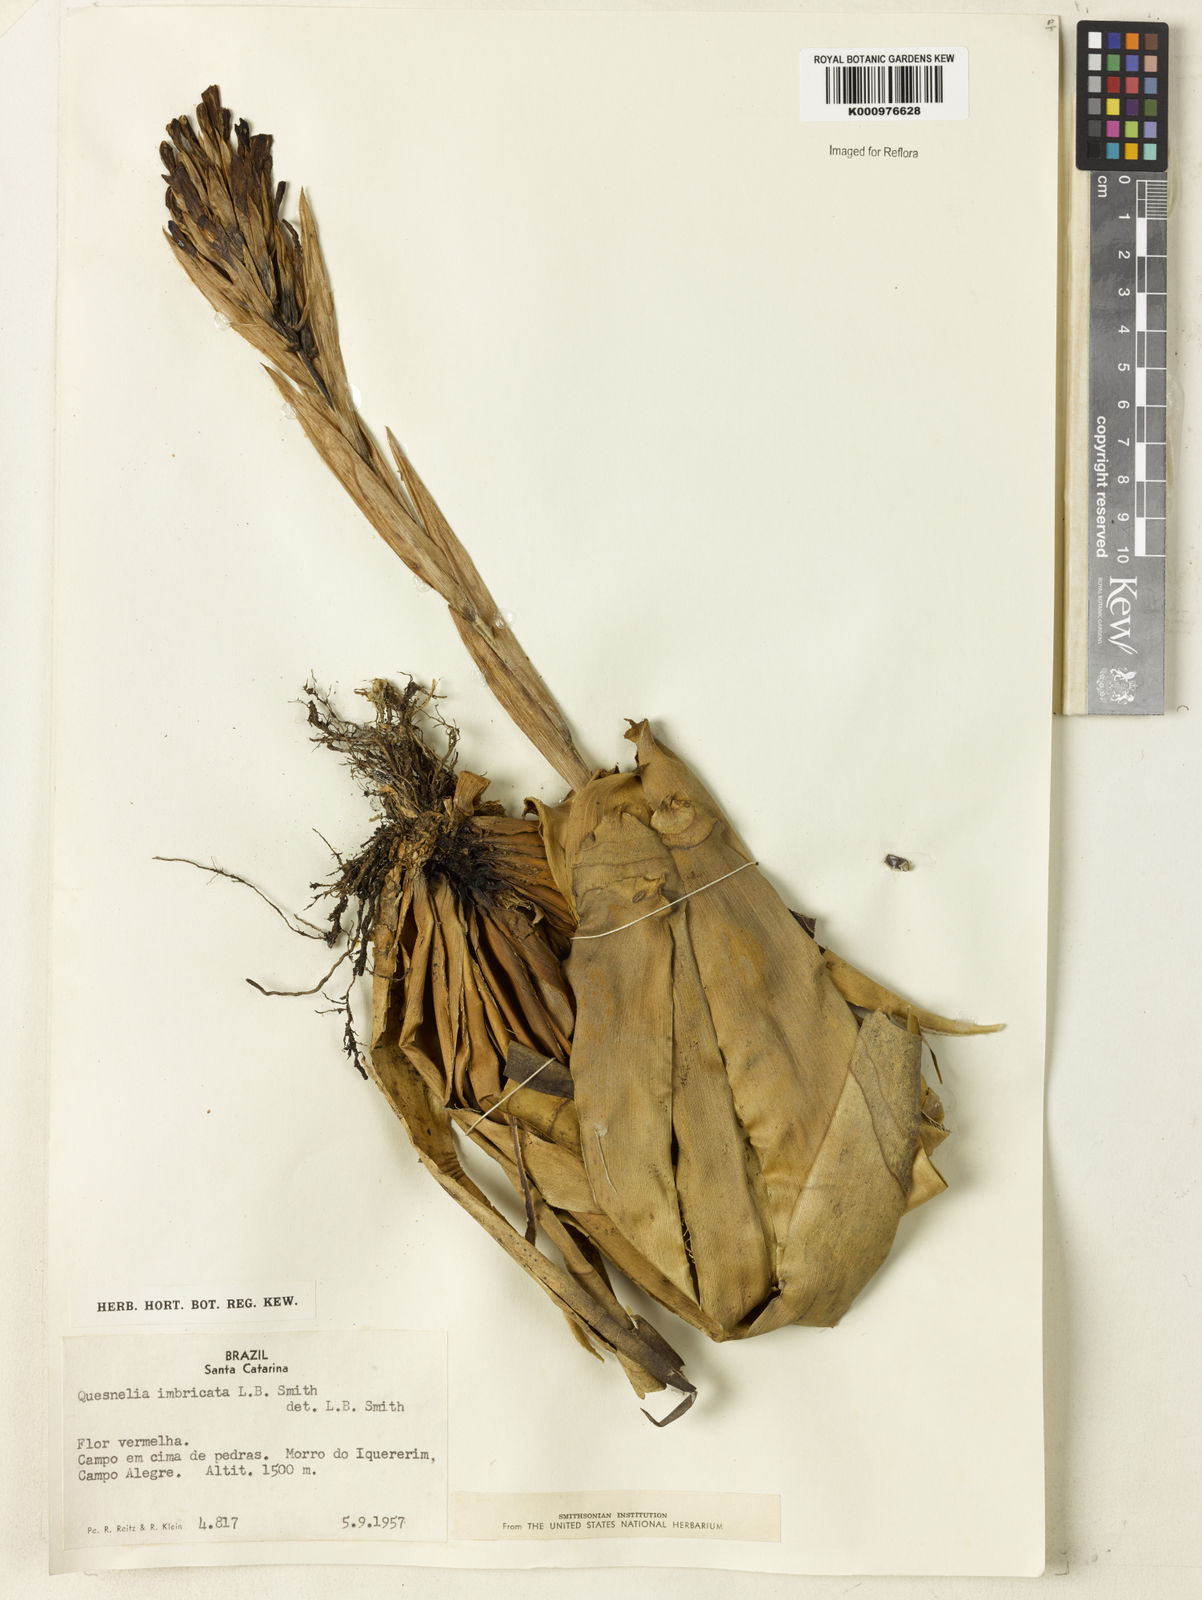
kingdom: Plantae
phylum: Tracheophyta
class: Liliopsida
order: Poales
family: Bromeliaceae
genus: Quesnelia
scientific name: Quesnelia imbricata
